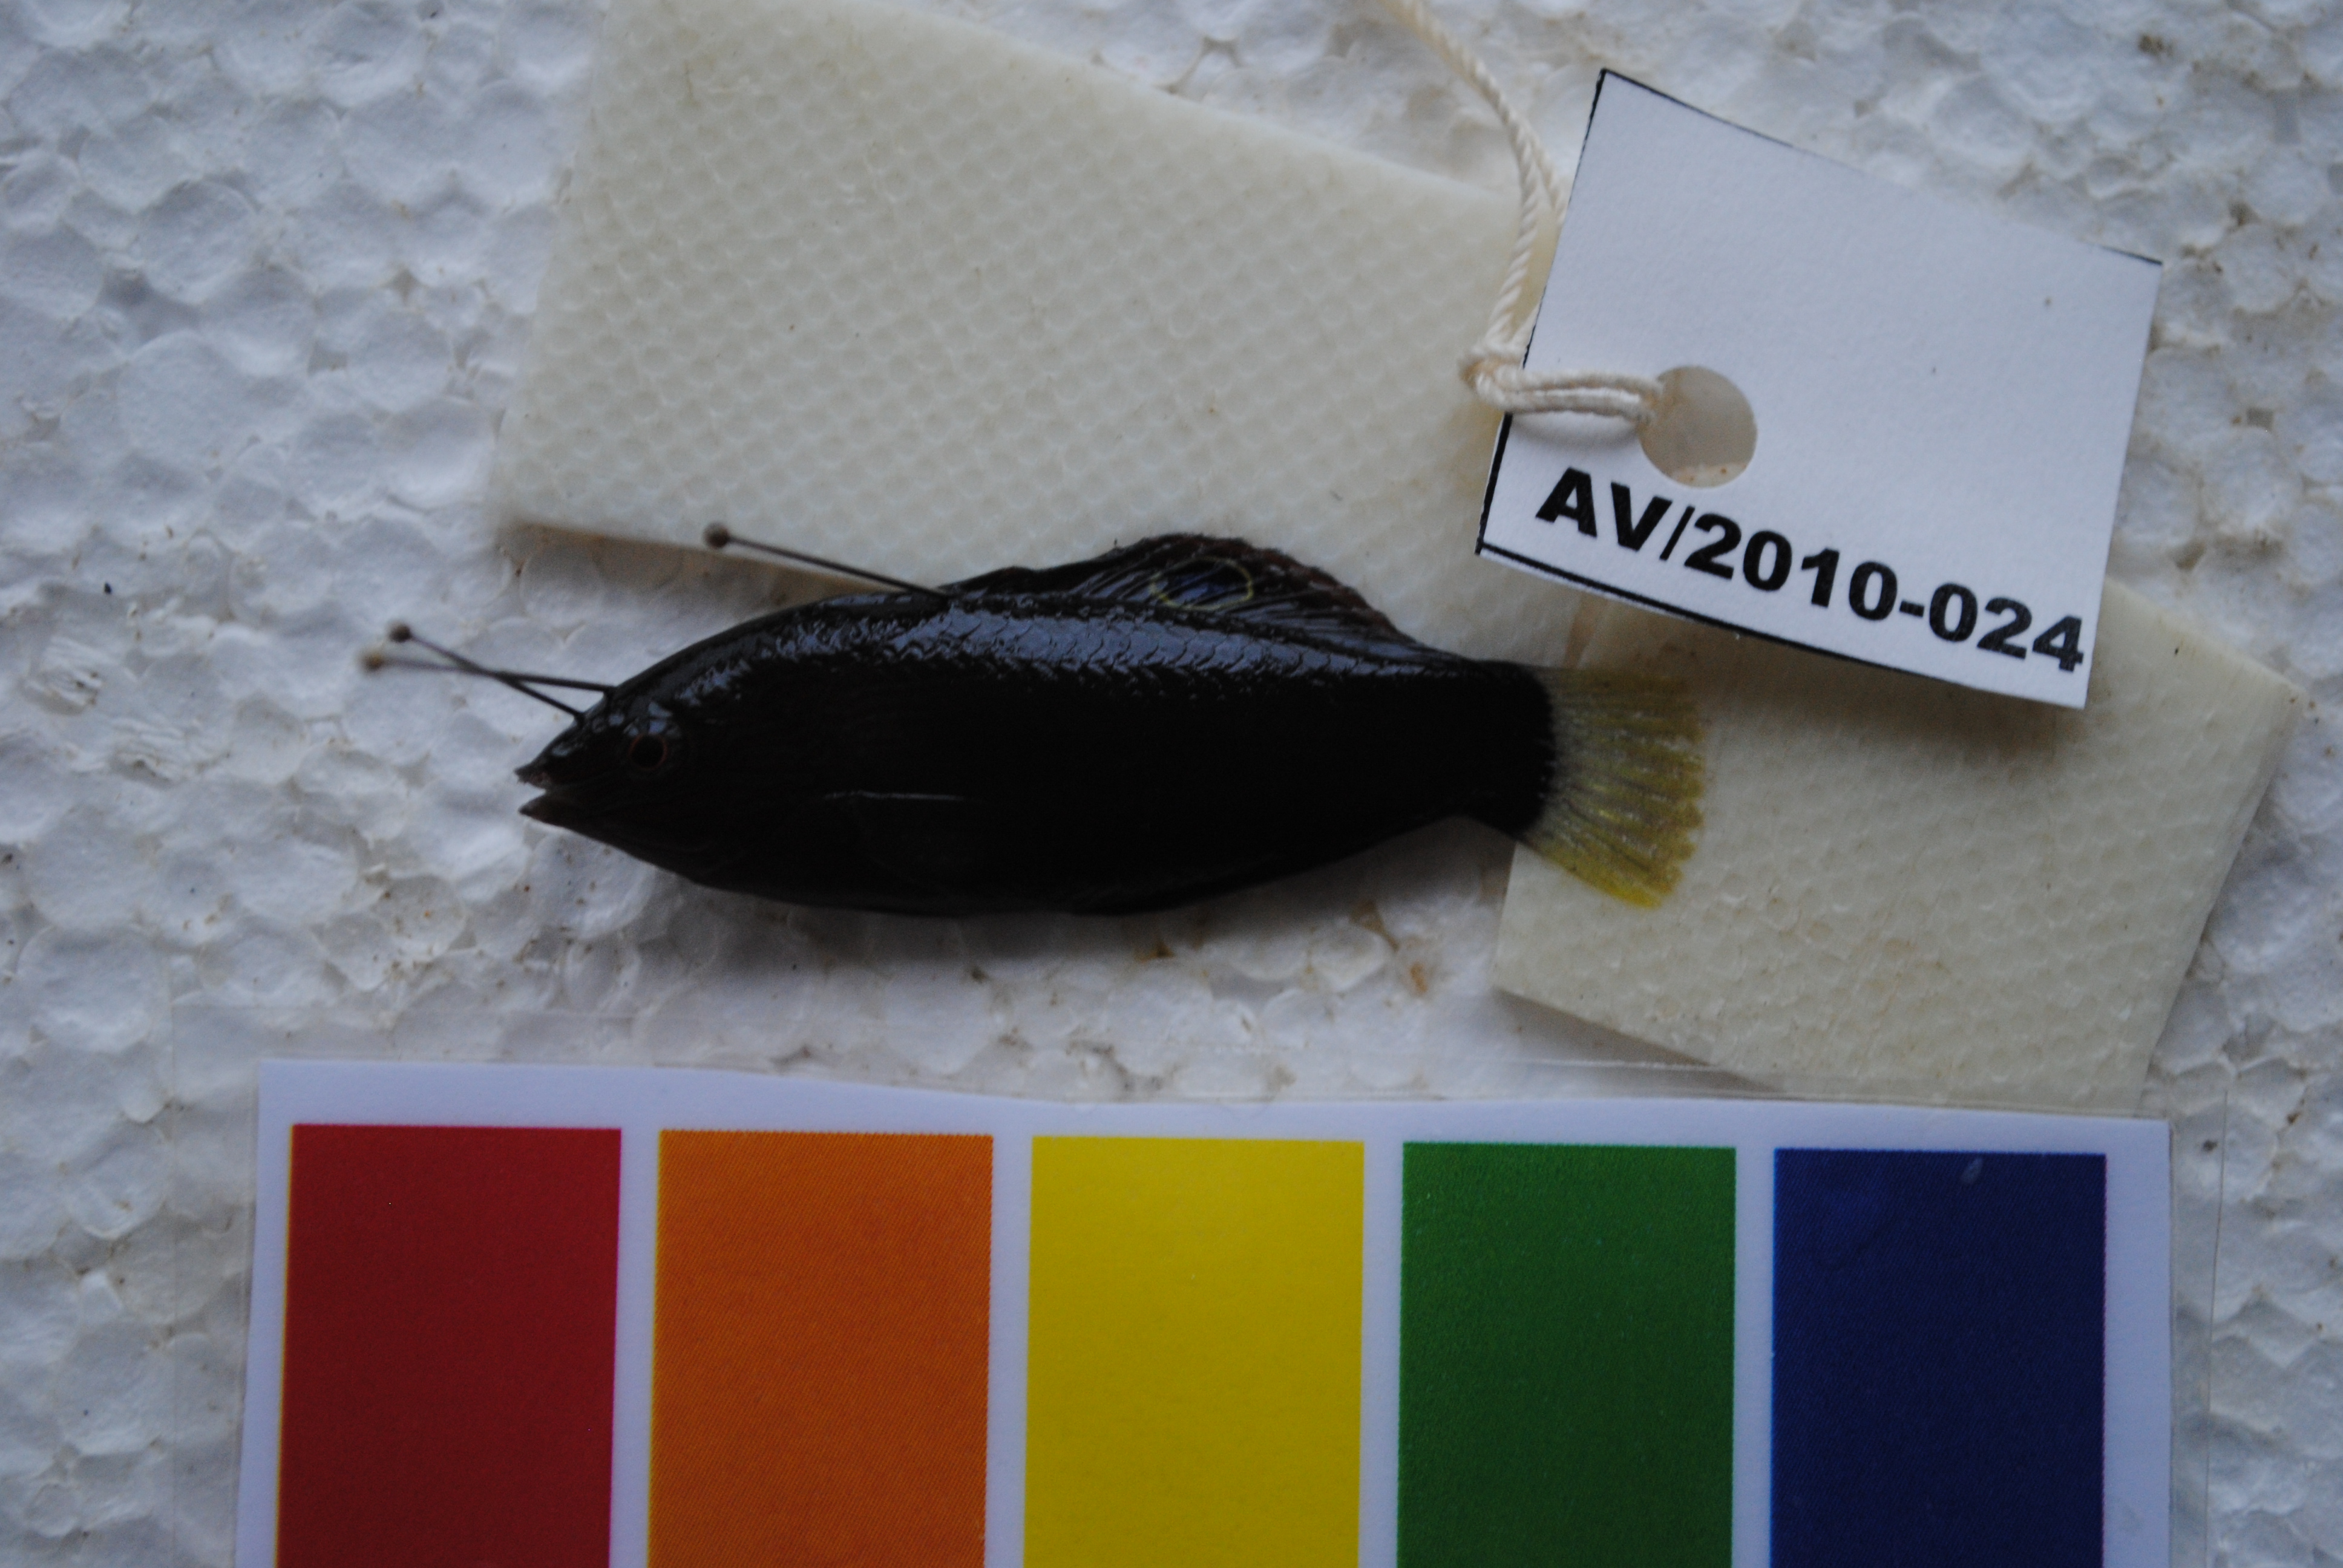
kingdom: Animalia
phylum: Chordata
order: Perciformes
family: Labridae
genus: Halichoeres
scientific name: Halichoeres marginatus
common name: Dusky wrasse
